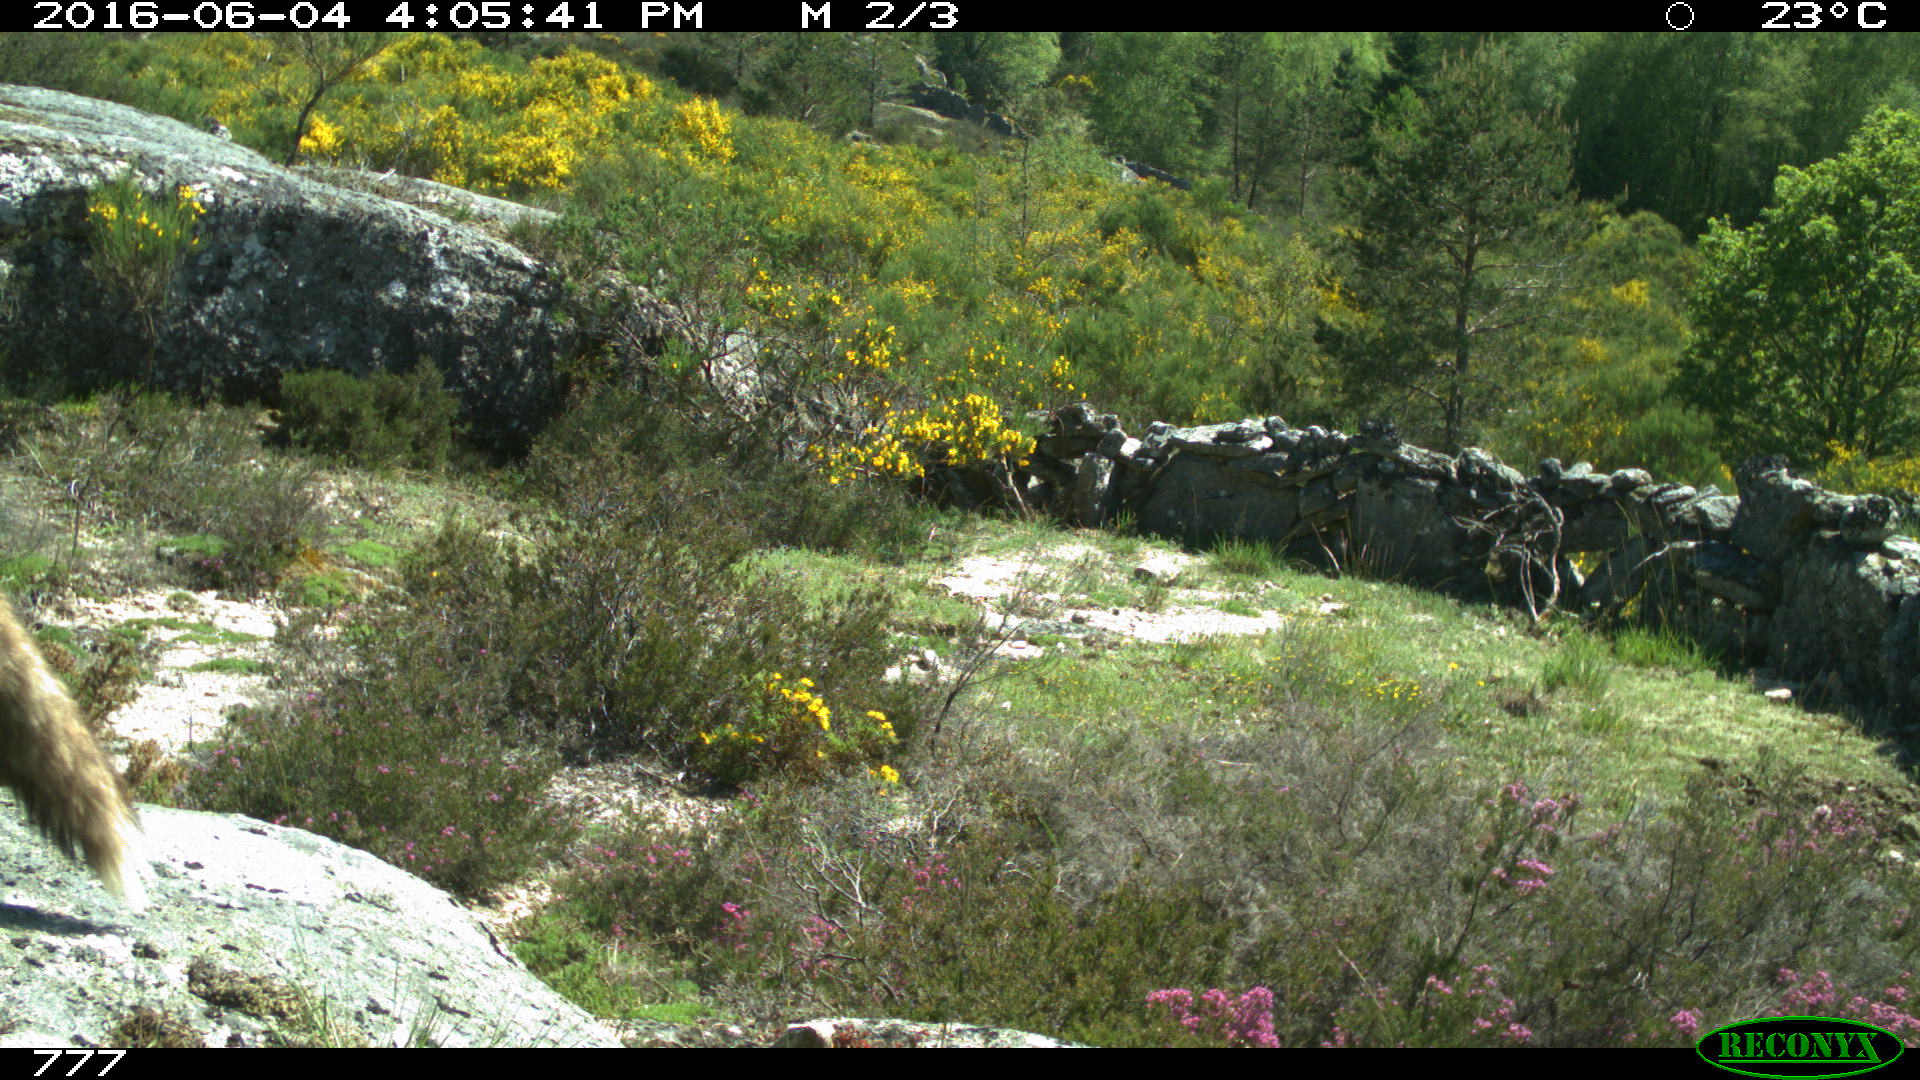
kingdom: Animalia
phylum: Chordata
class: Mammalia
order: Carnivora
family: Canidae
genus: Vulpes
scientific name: Vulpes vulpes
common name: Red fox
